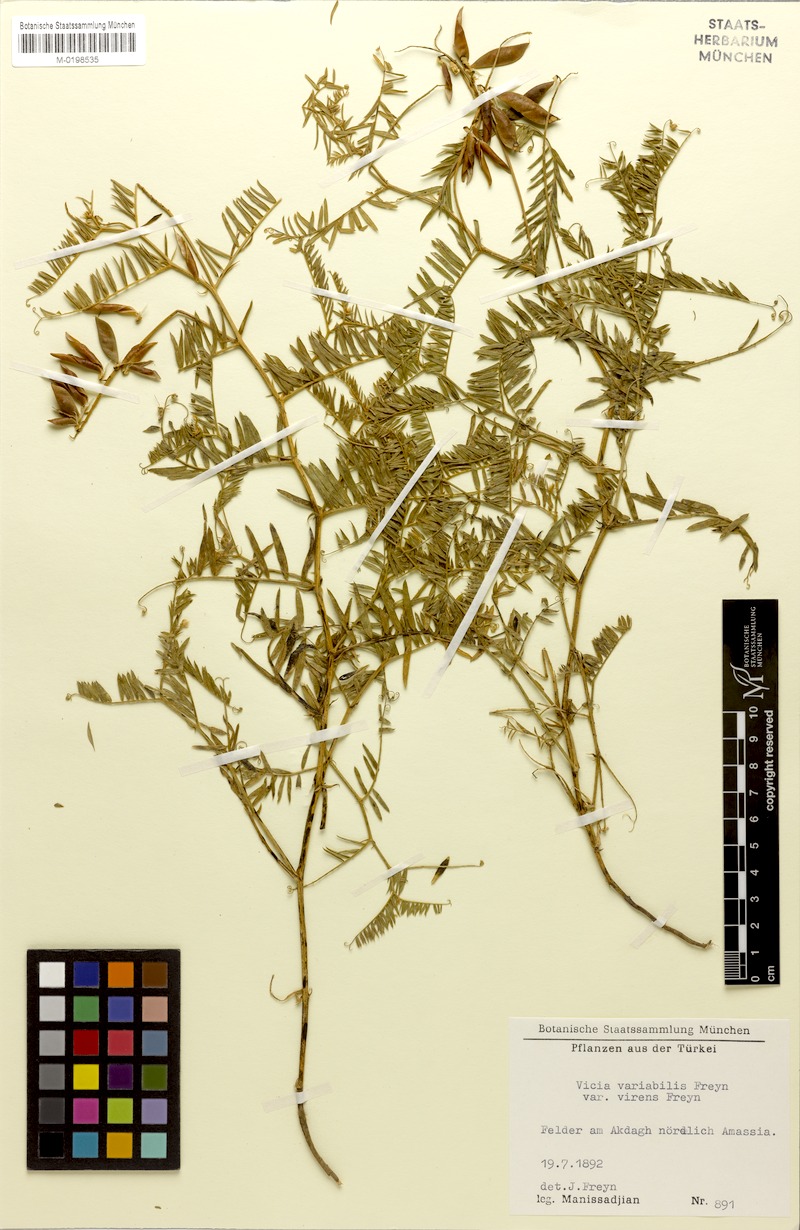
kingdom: Plantae
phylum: Tracheophyta
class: Magnoliopsida
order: Fabales
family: Fabaceae
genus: Vicia
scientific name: Vicia tenuifolia
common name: Fine-leaved vetch
